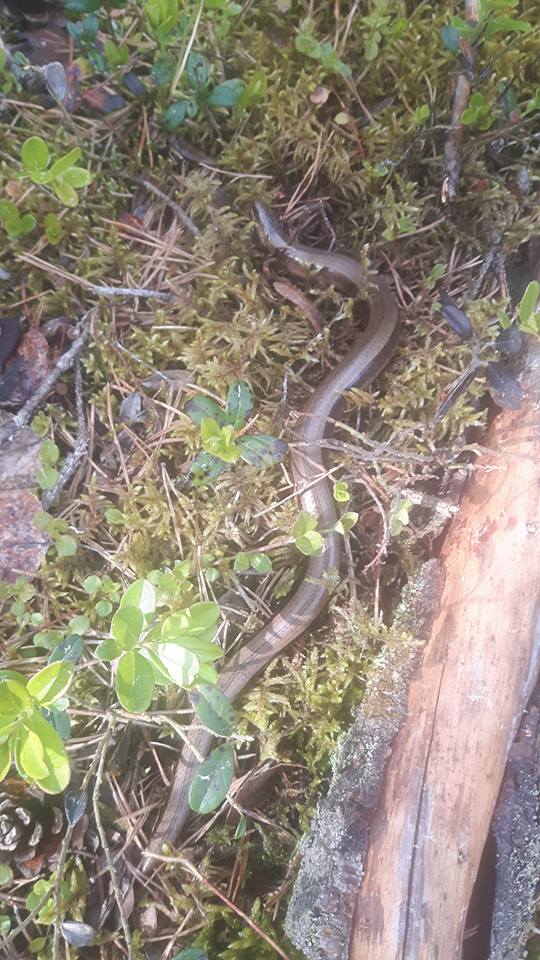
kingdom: Animalia
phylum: Chordata
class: Squamata
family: Anguidae
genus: Anguis
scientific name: Anguis colchica
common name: Slow worm
